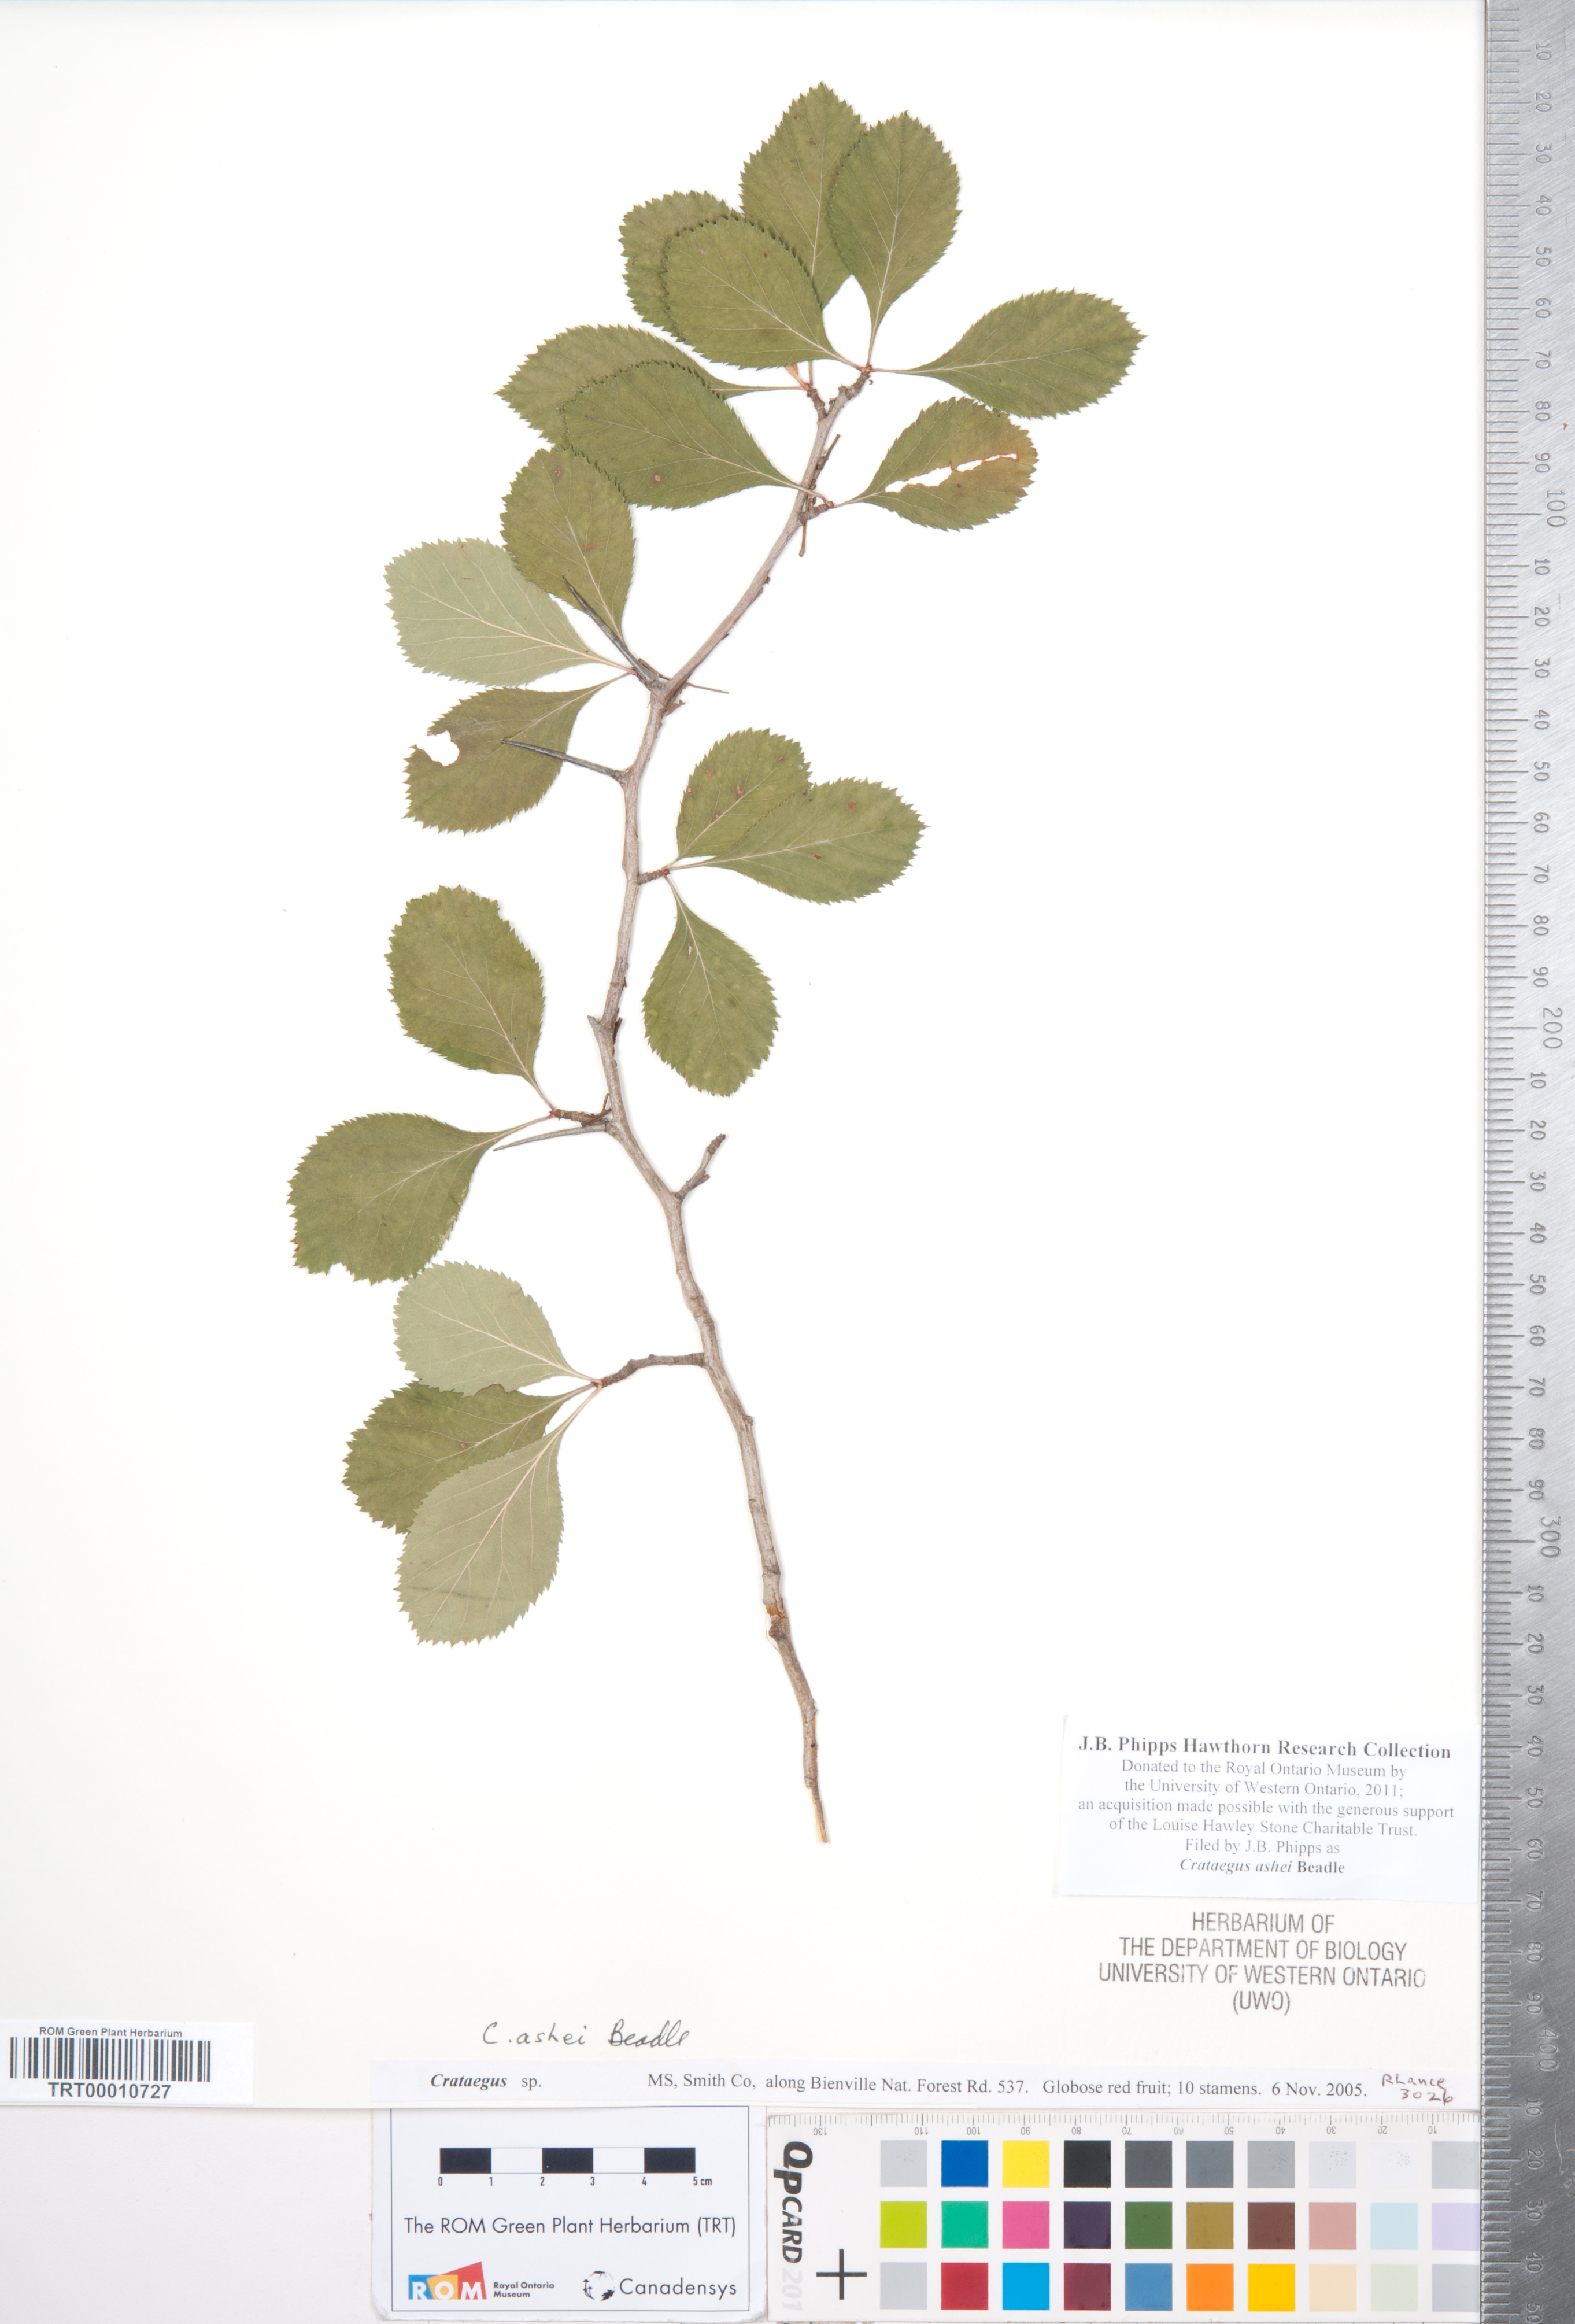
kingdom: Plantae
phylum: Tracheophyta
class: Magnoliopsida
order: Rosales
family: Rosaceae
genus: Crataegus
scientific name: Crataegus ashei
